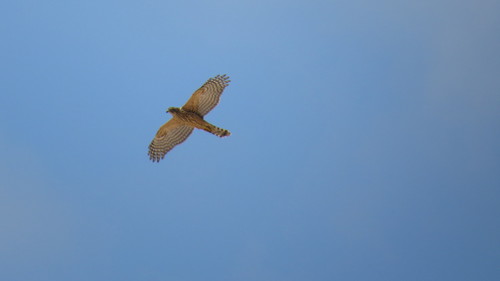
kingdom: Animalia
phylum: Chordata
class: Aves
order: Accipitriformes
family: Accipitridae
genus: Accipiter
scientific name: Accipiter gentilis
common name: Northern goshawk
